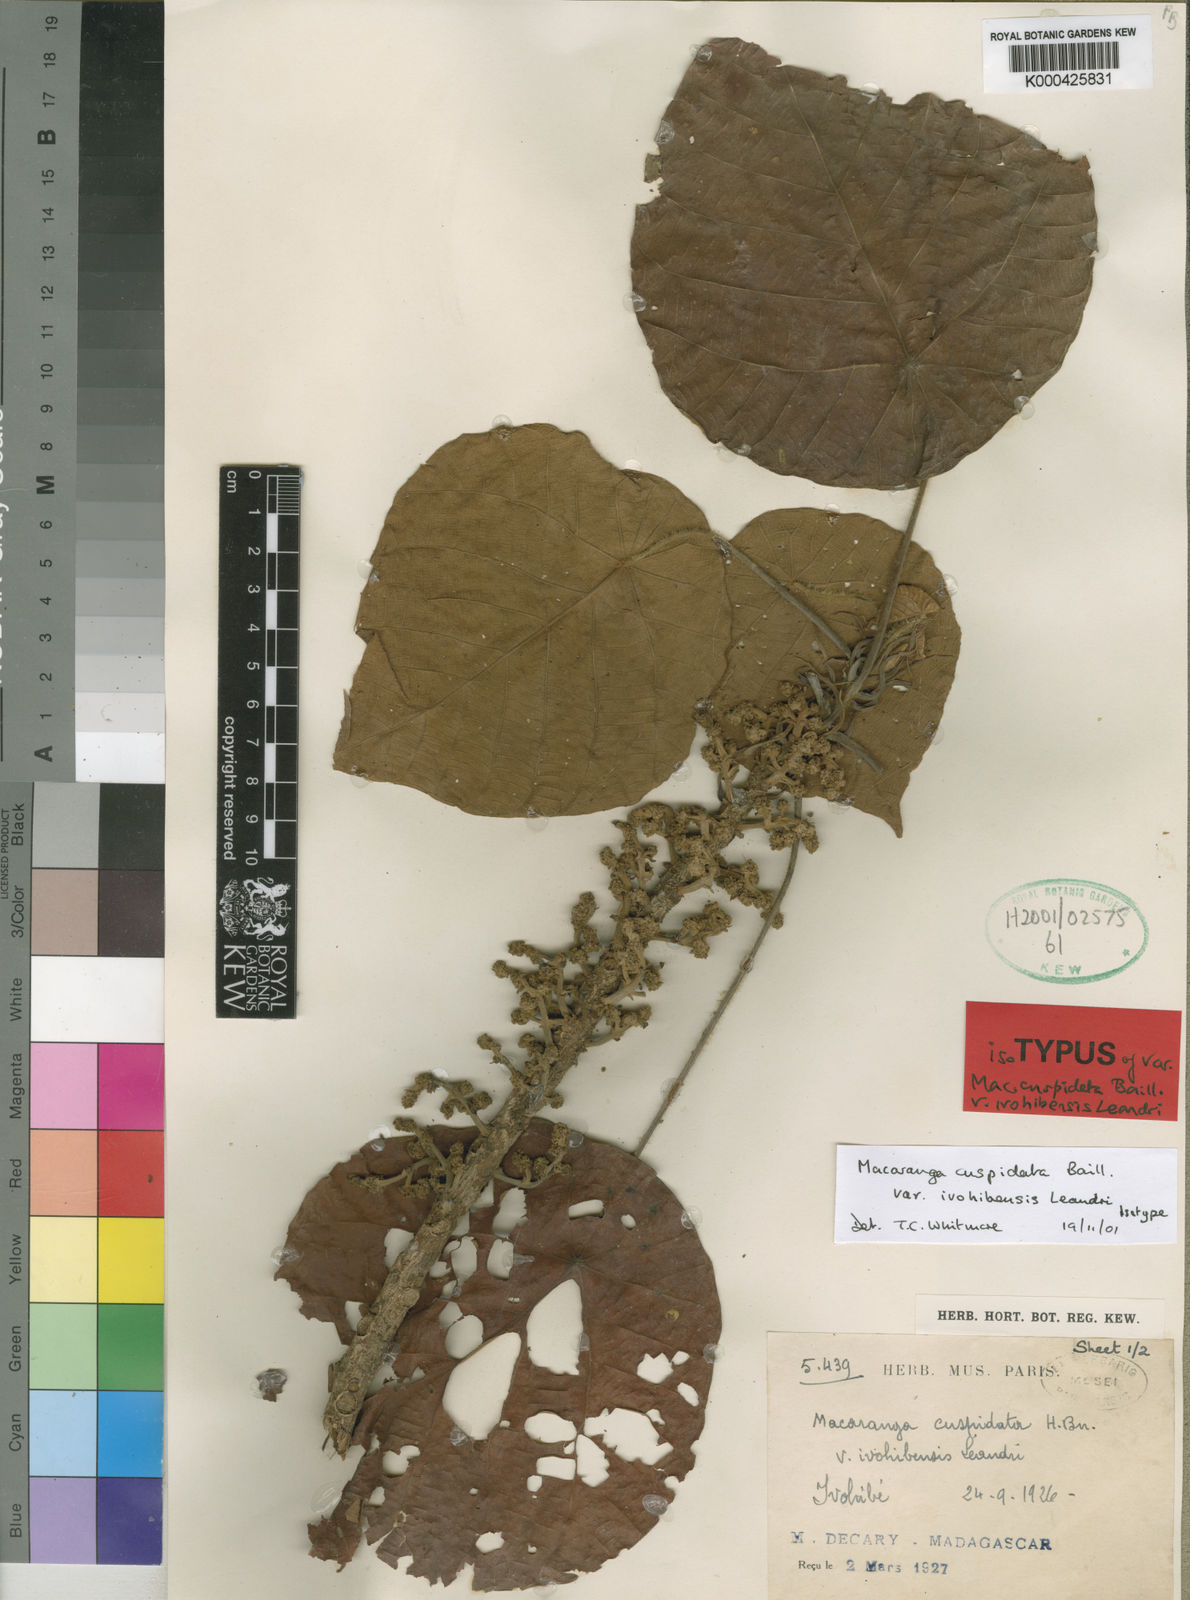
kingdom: Plantae
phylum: Tracheophyta
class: Magnoliopsida
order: Malpighiales
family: Euphorbiaceae
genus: Macaranga
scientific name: Macaranga cuspidata
